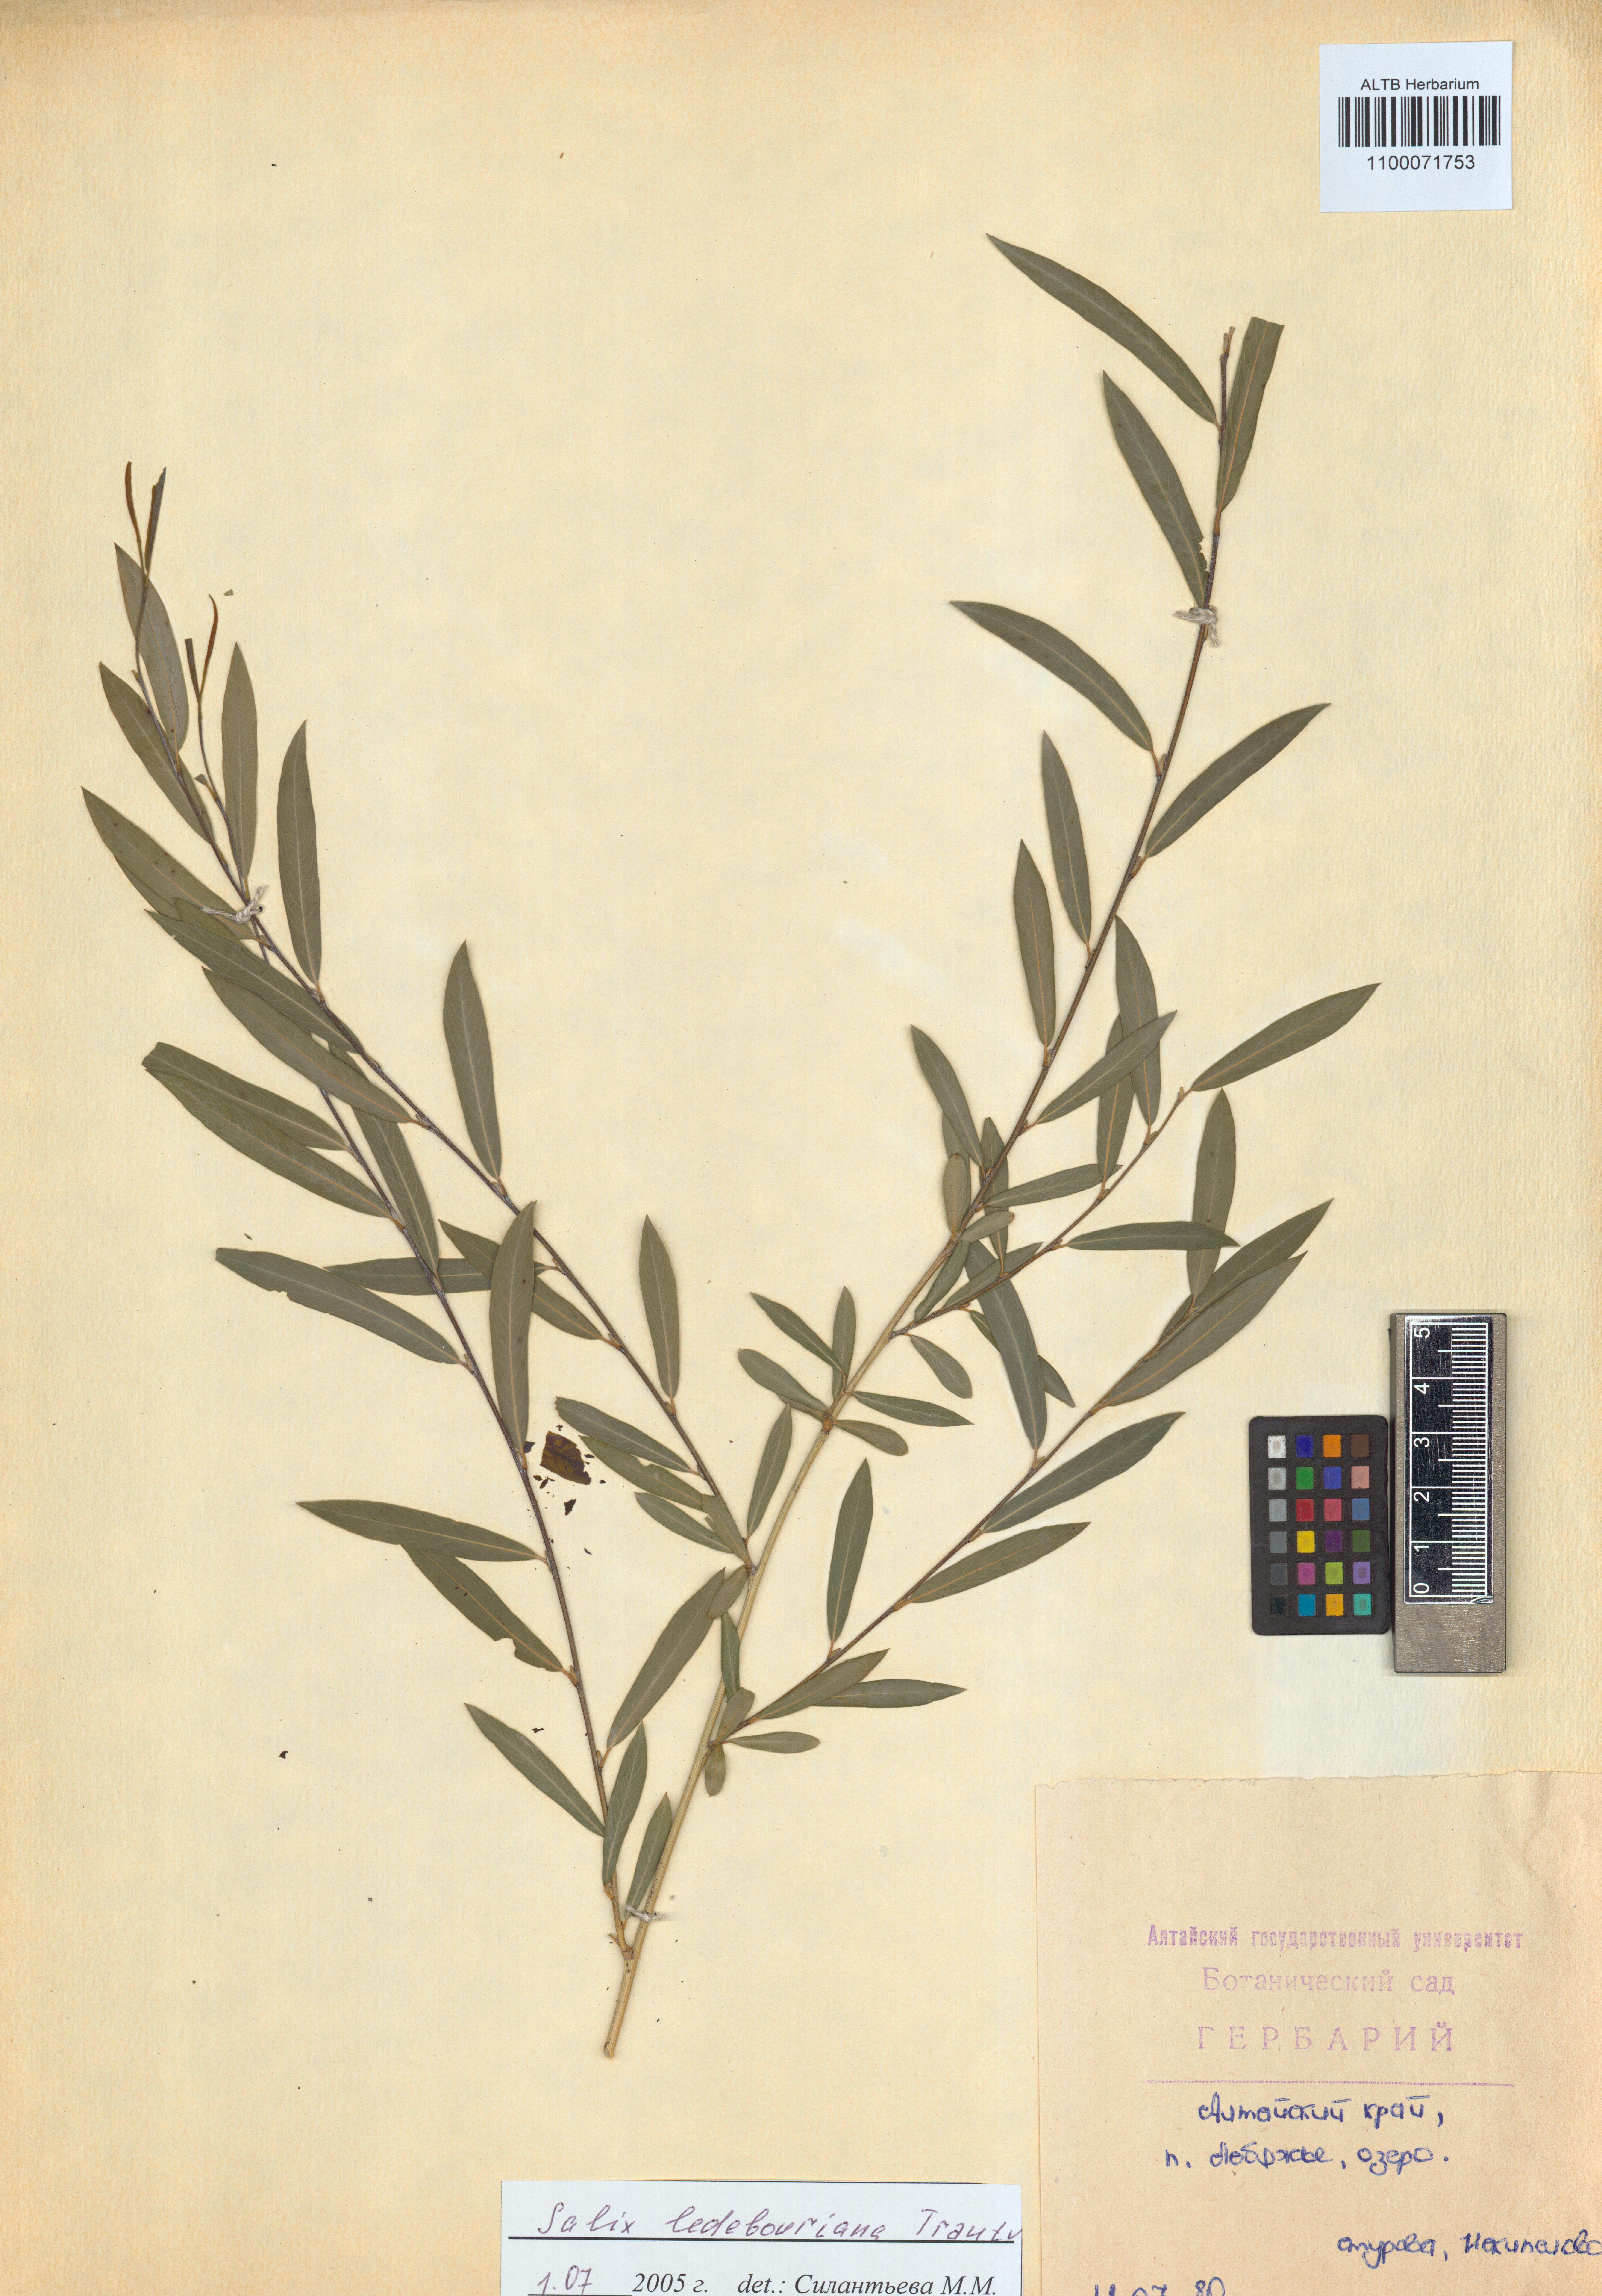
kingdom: Plantae
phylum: Tracheophyta
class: Magnoliopsida
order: Malpighiales
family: Salicaceae
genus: Salix
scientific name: Salix ledebouriana
